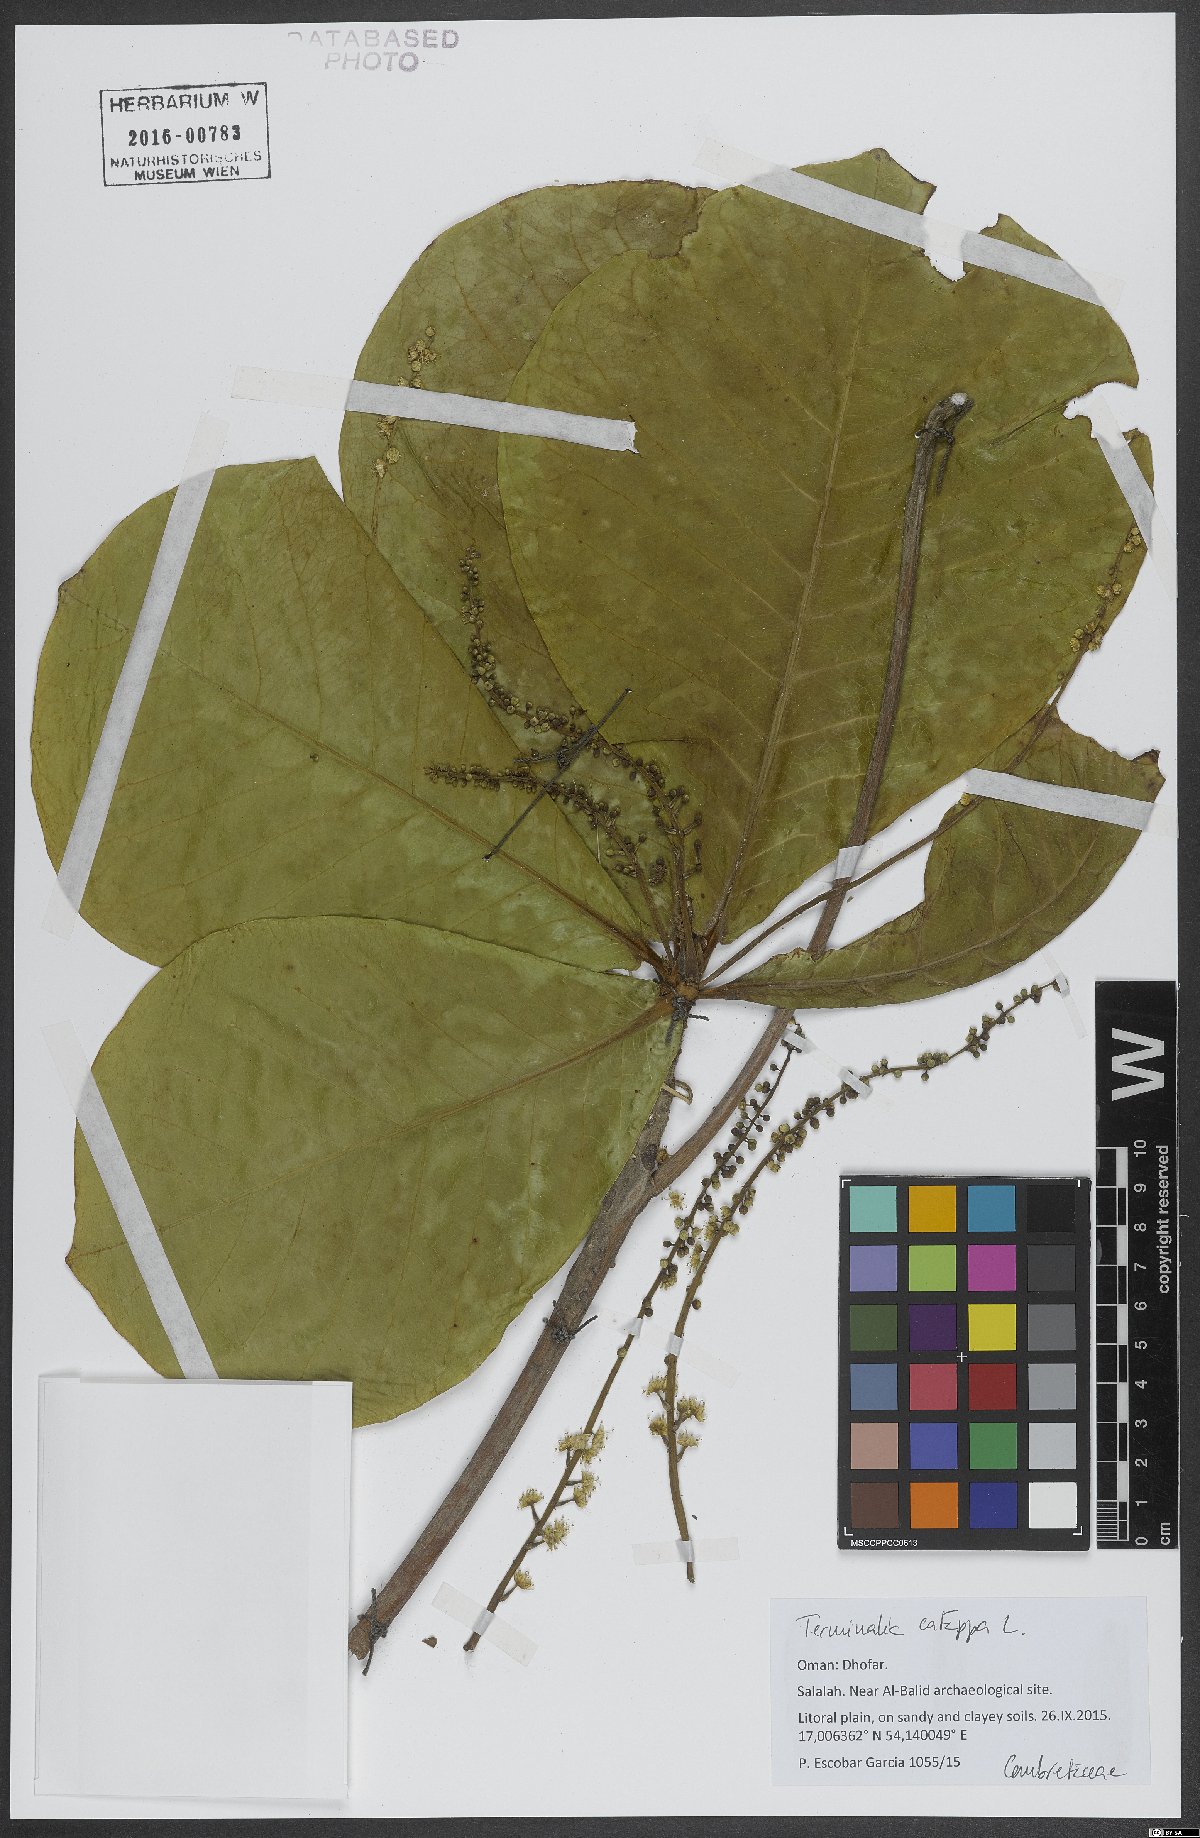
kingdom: Plantae
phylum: Tracheophyta
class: Magnoliopsida
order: Myrtales
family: Combretaceae
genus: Terminalia
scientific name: Terminalia catappa
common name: Tropical almond
